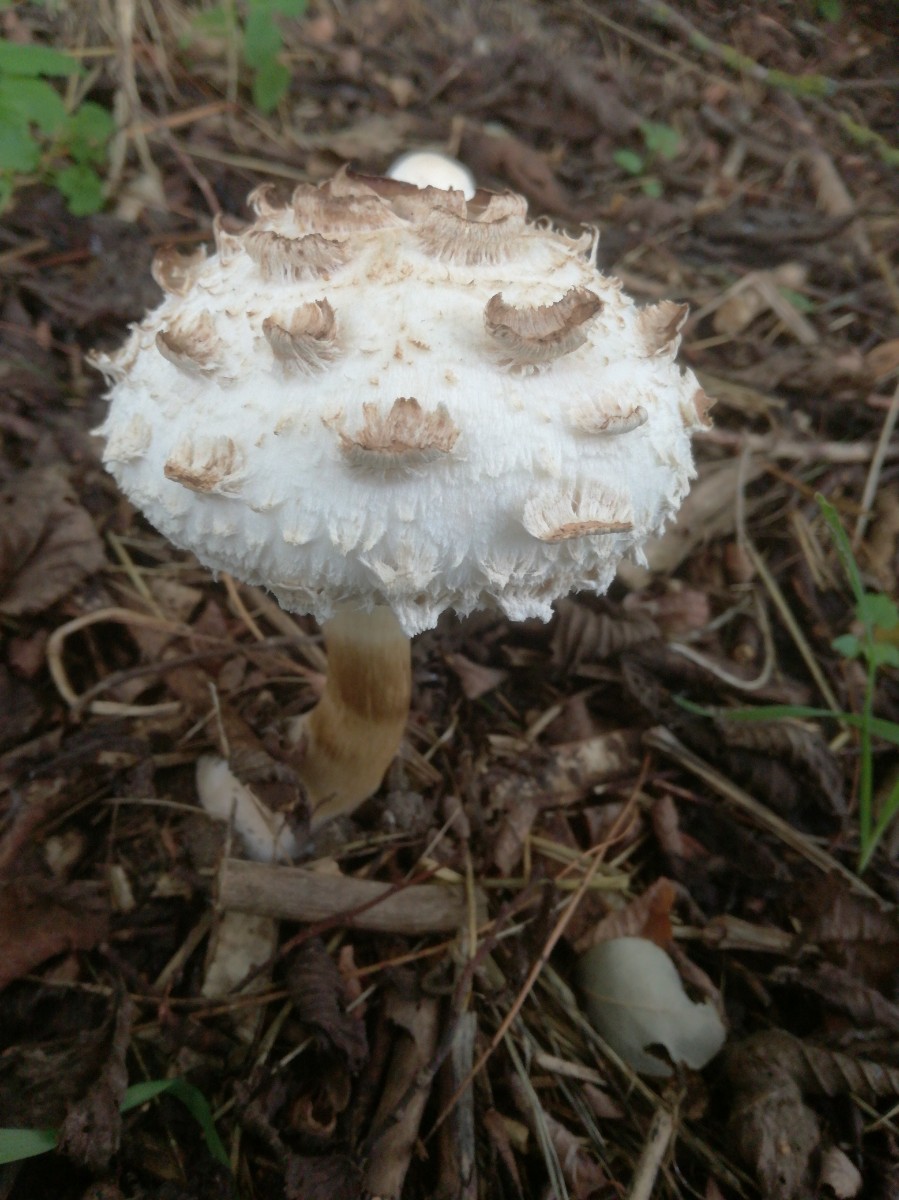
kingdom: Fungi
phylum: Basidiomycota
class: Agaricomycetes
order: Agaricales
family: Agaricaceae
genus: Chlorophyllum
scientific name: Chlorophyllum rhacodes
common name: ægte rabarberhat
